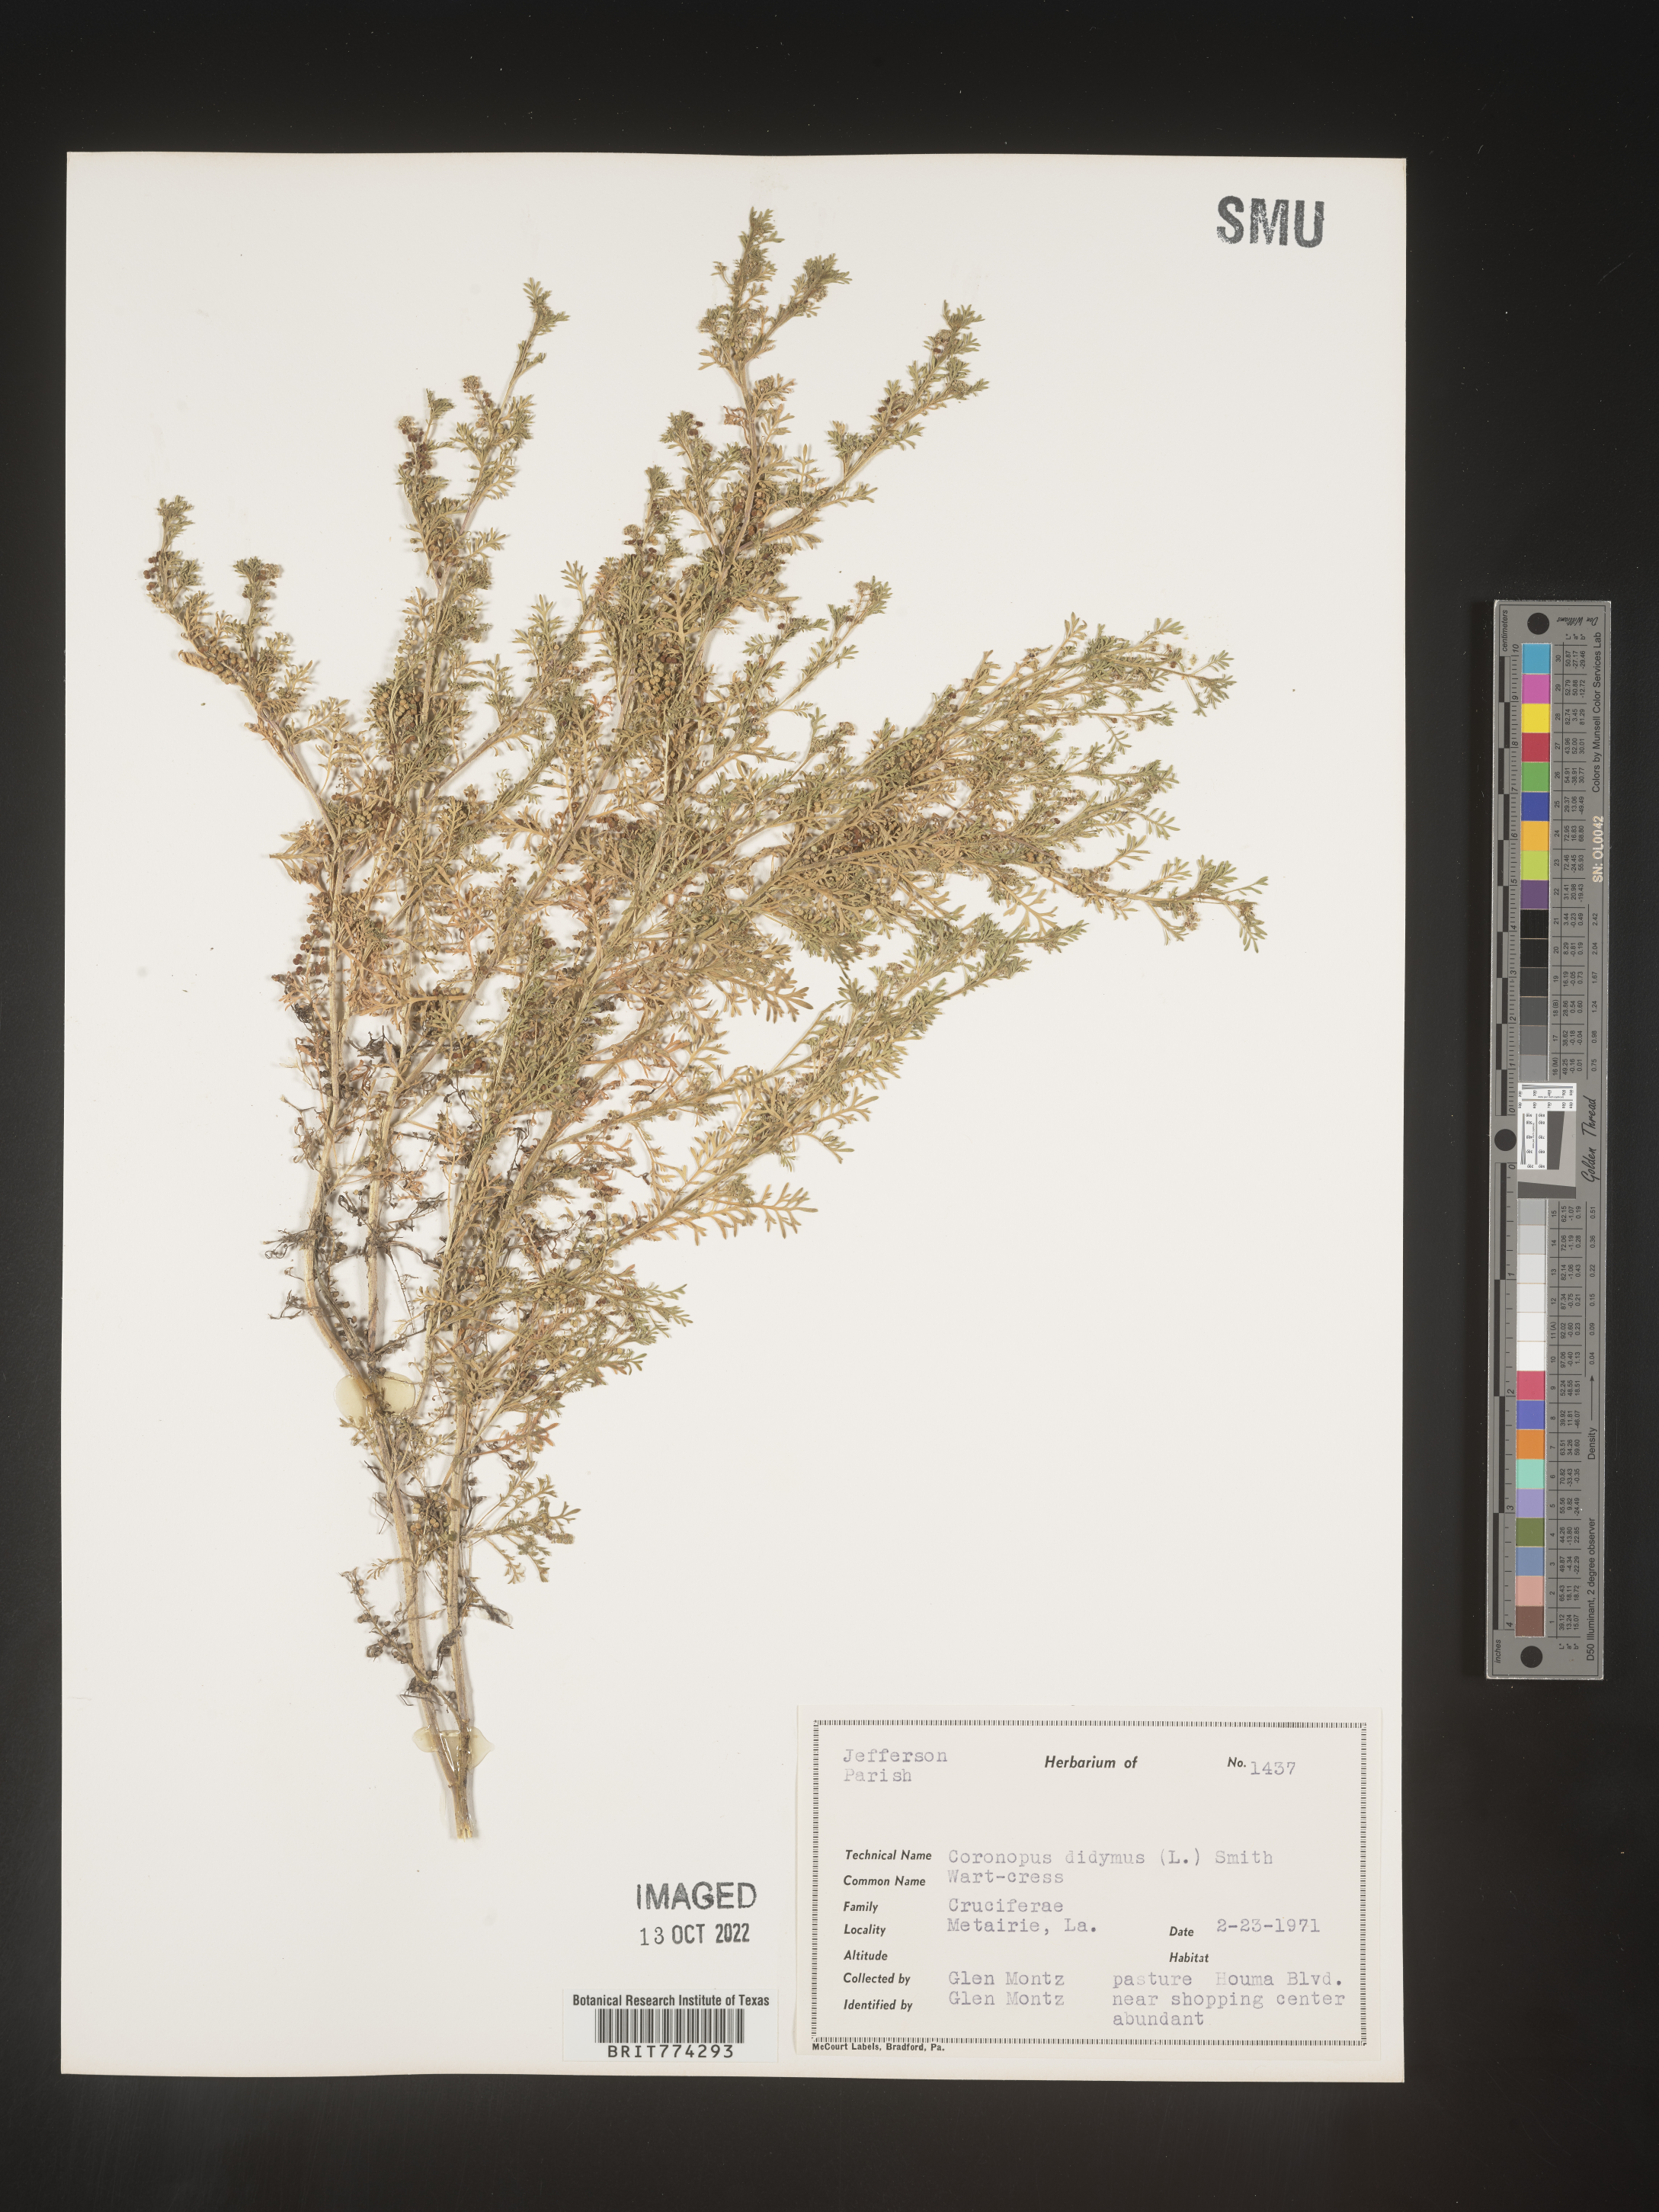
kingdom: Plantae
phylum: Tracheophyta
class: Magnoliopsida
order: Brassicales
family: Brassicaceae
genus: Coronopus
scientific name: Coronopus
